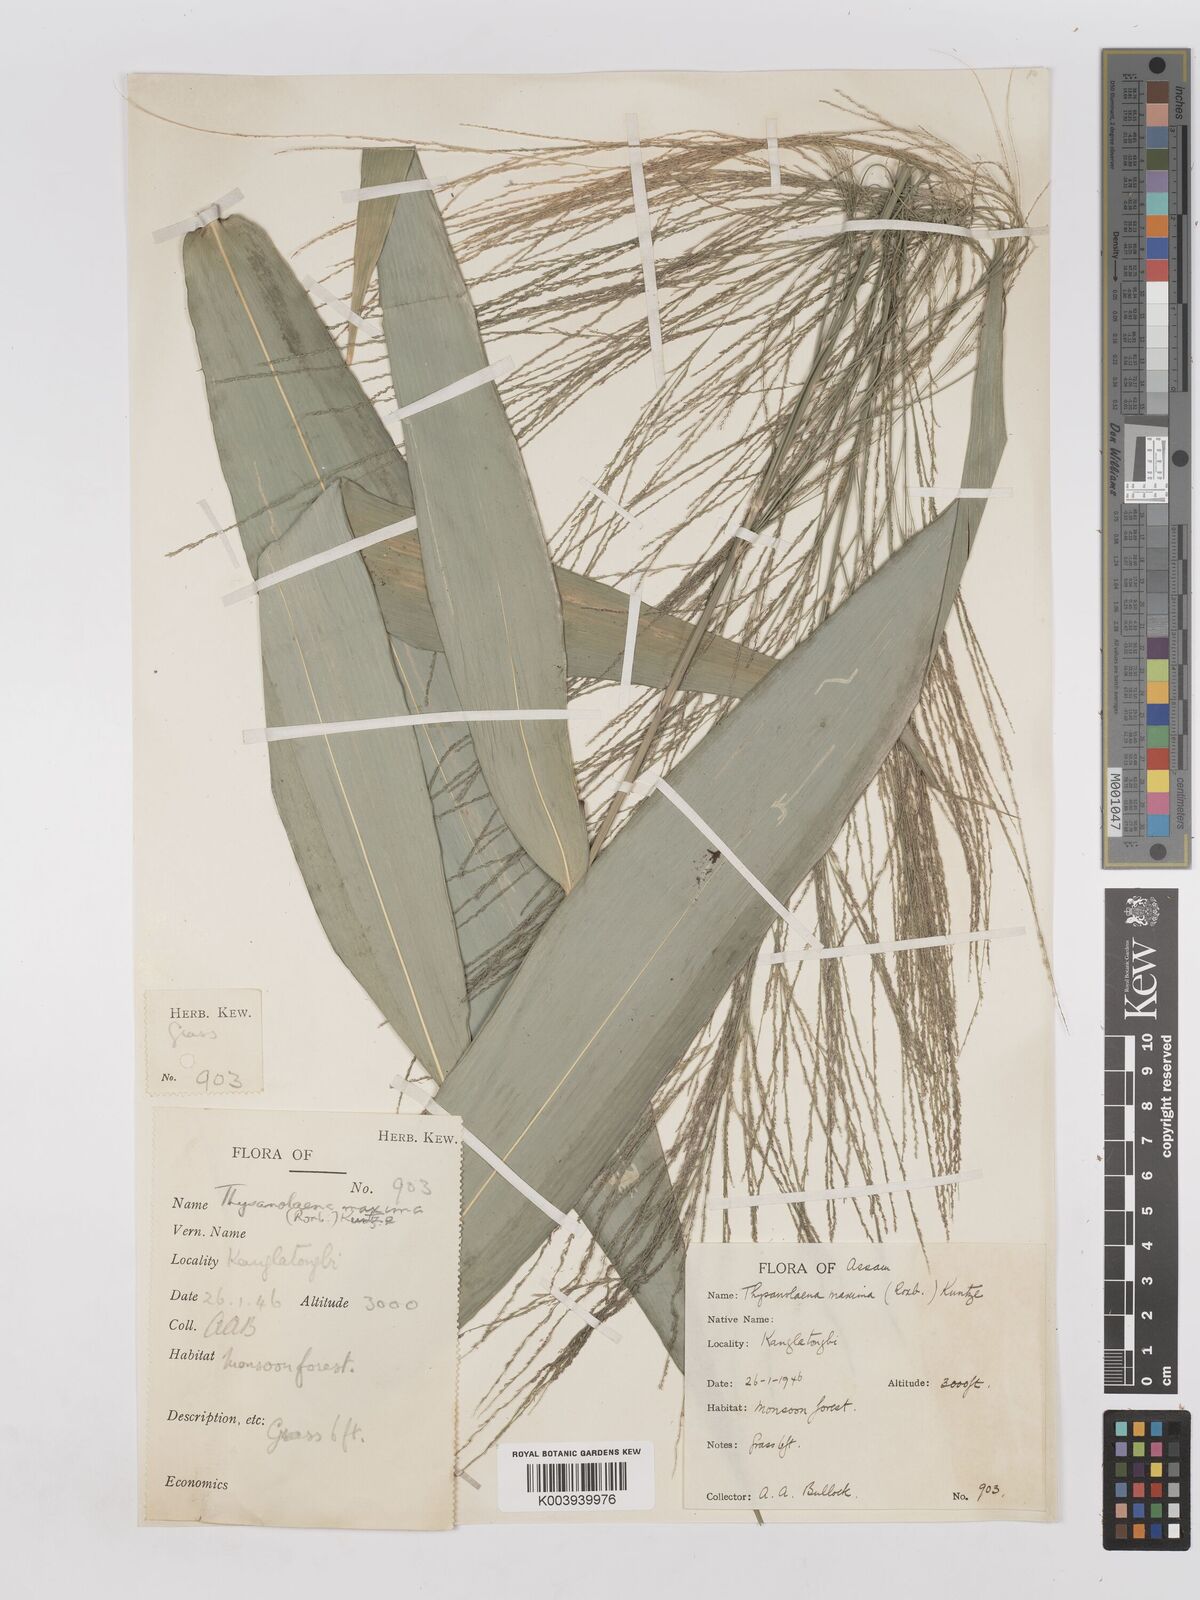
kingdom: Plantae
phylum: Tracheophyta
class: Liliopsida
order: Poales
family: Poaceae
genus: Thysanolaena
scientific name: Thysanolaena latifolia
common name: Tiger grass
